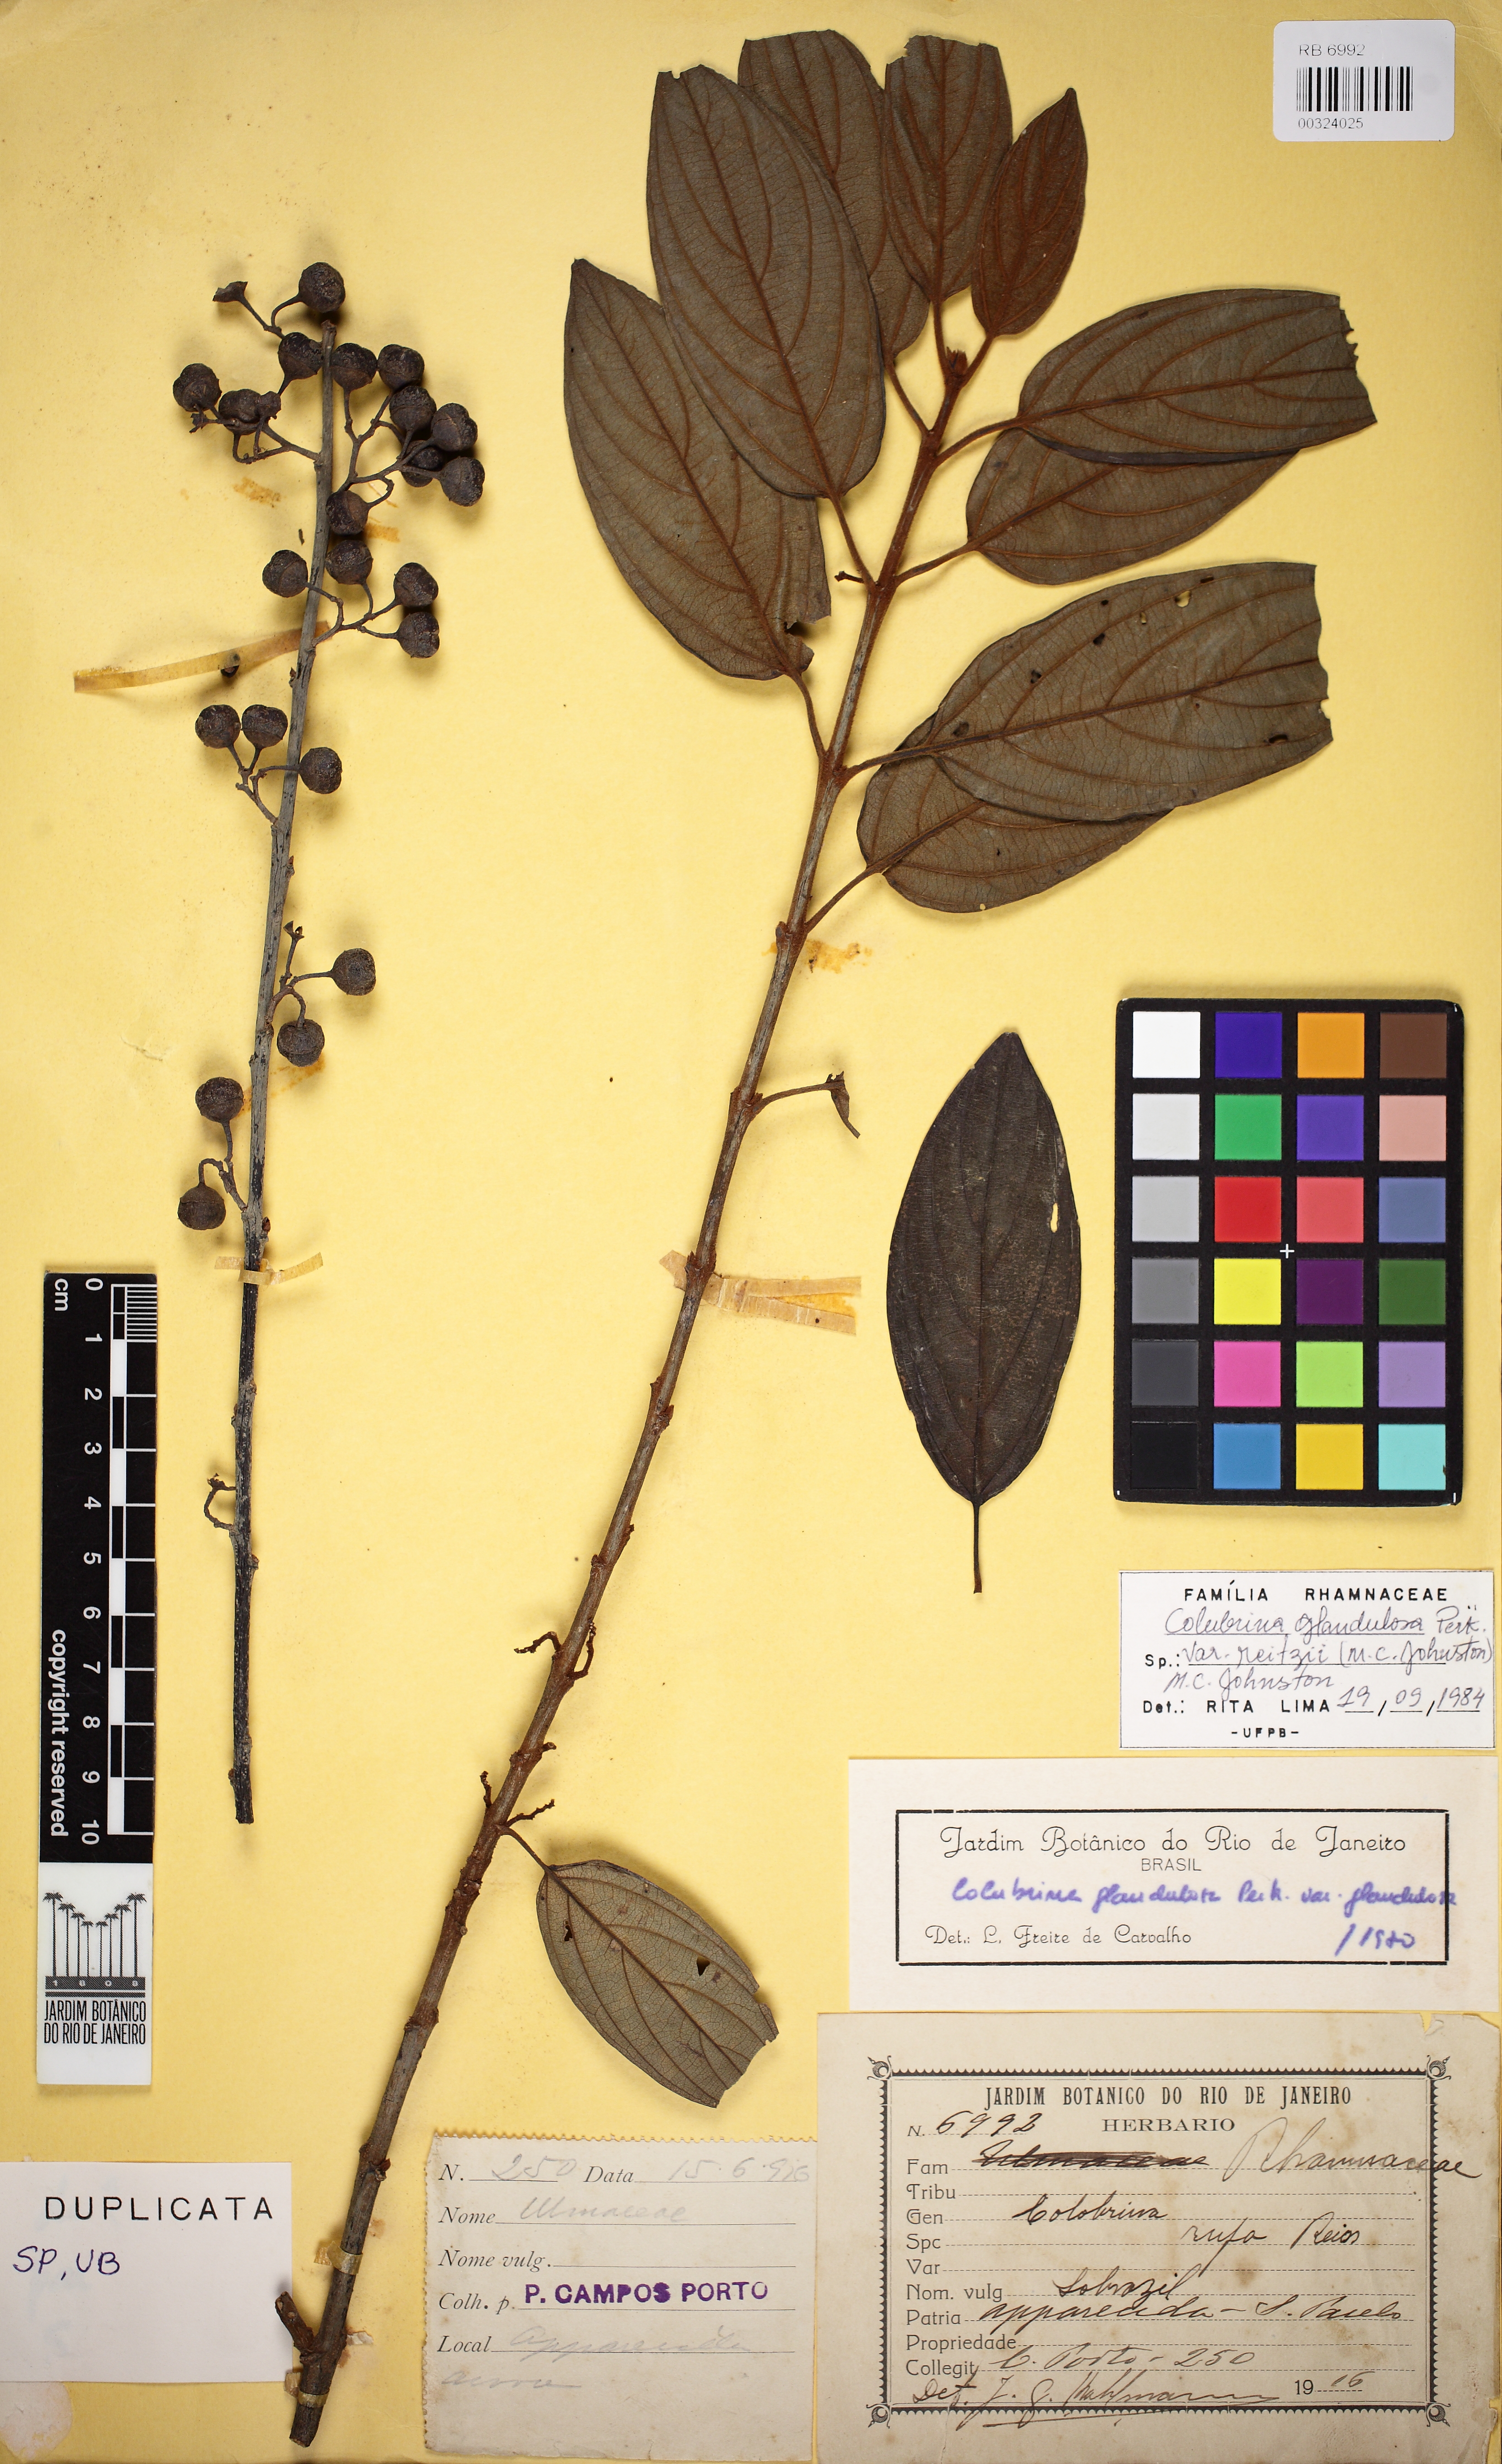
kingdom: Plantae
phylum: Tracheophyta
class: Magnoliopsida
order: Rosales
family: Rhamnaceae
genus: Colubrina
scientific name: Colubrina glandulosa
